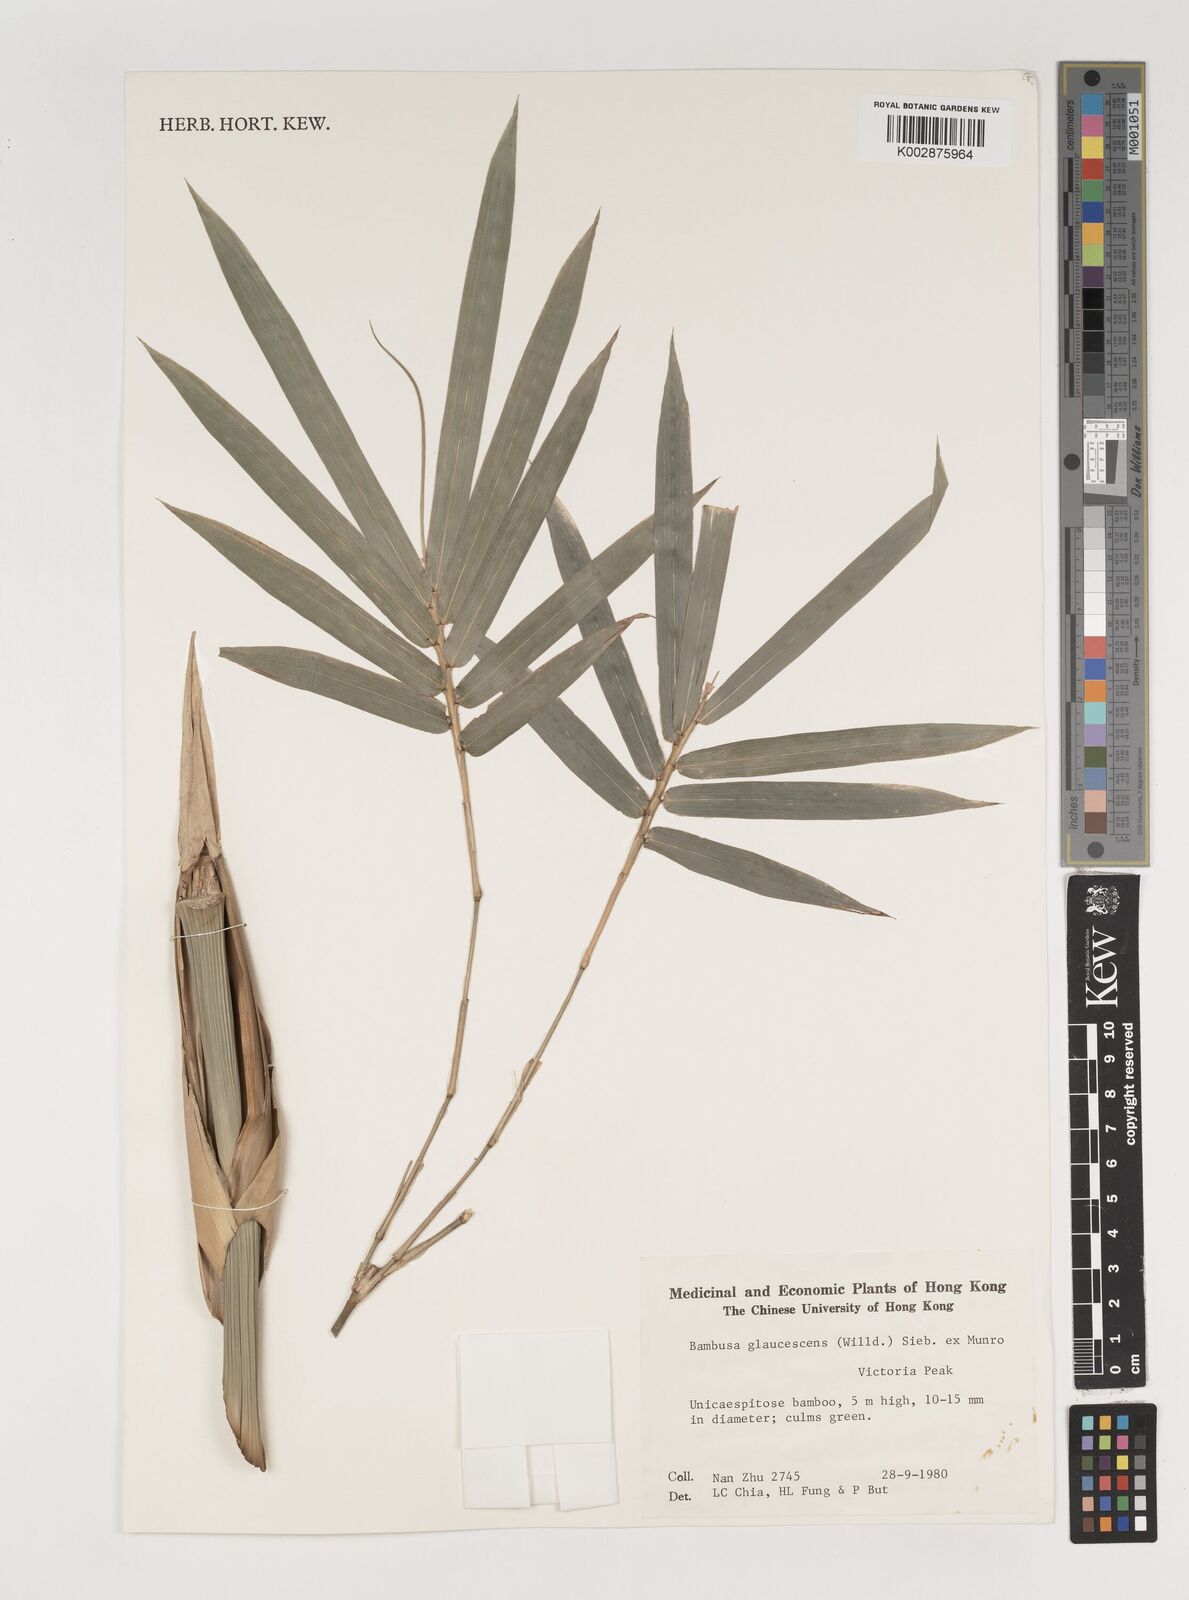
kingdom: Plantae
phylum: Tracheophyta
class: Liliopsida
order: Poales
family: Poaceae
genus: Bambusa
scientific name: Bambusa multiplex
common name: Hedge bamboo
